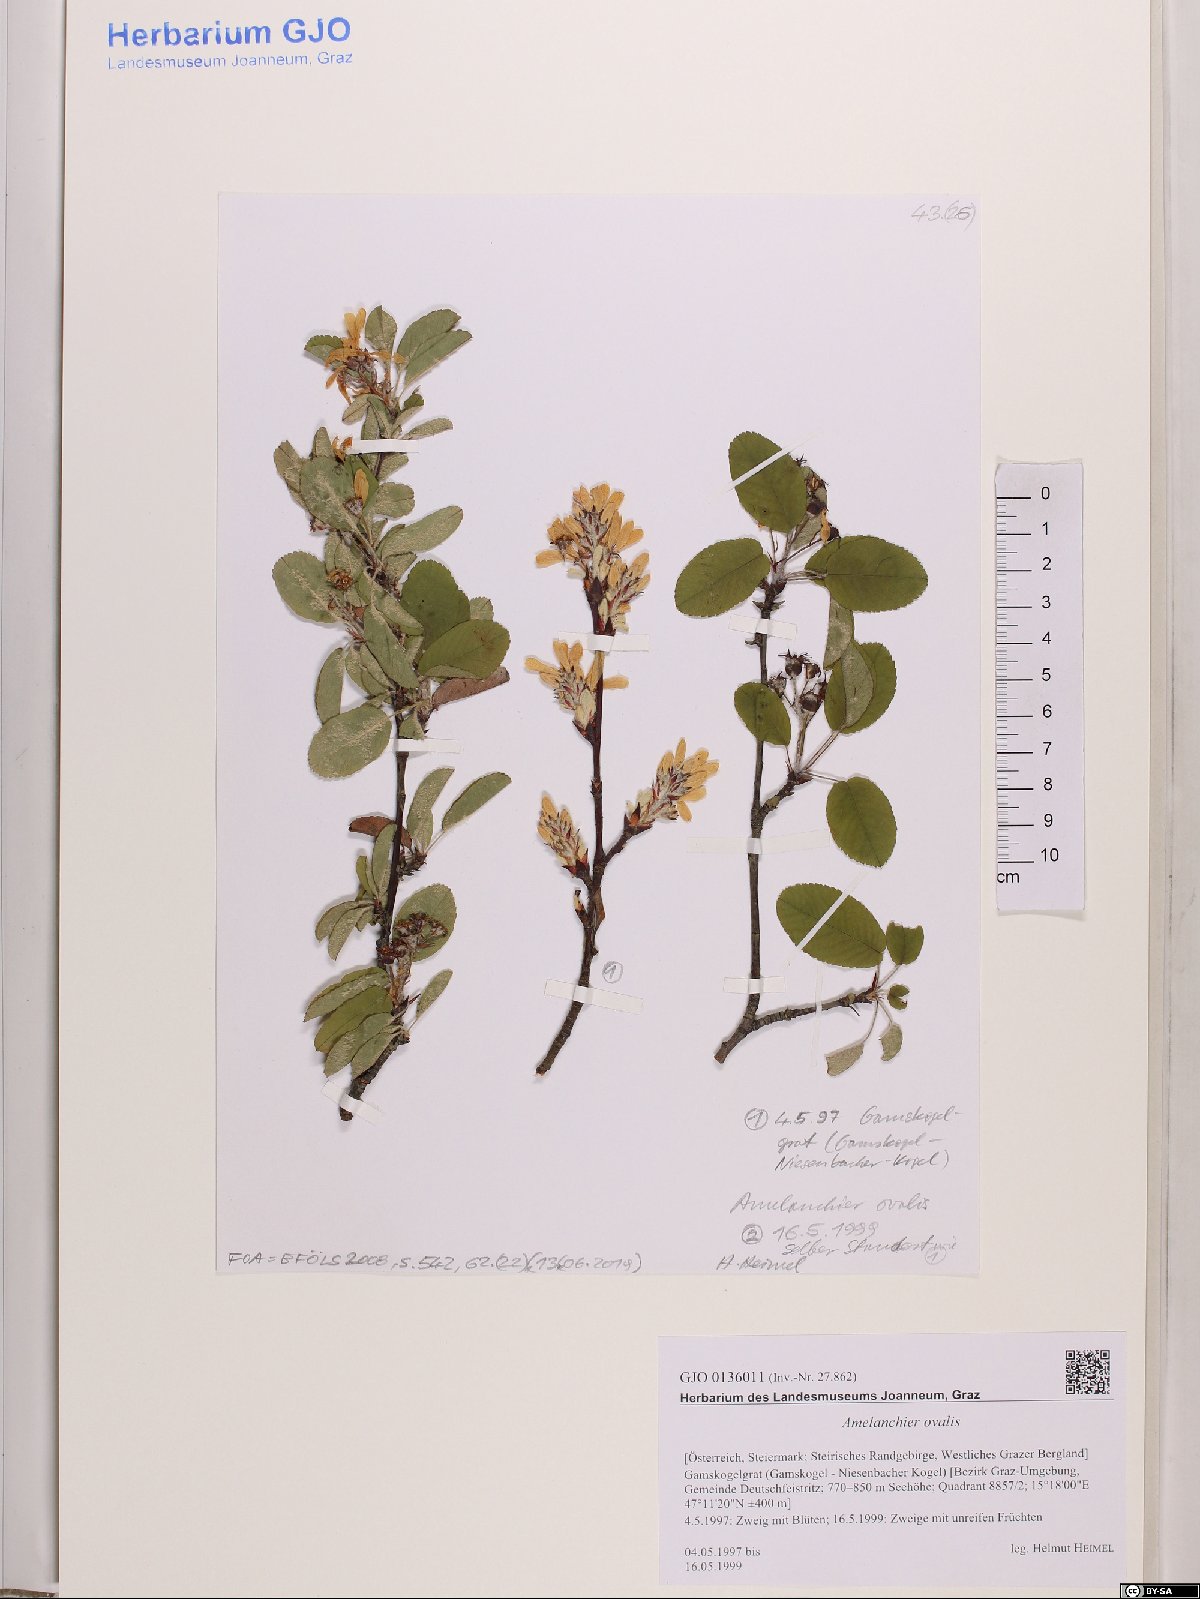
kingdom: Plantae
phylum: Tracheophyta
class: Magnoliopsida
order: Rosales
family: Rosaceae
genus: Amelanchier
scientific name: Amelanchier ovalis
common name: Serviceberry
